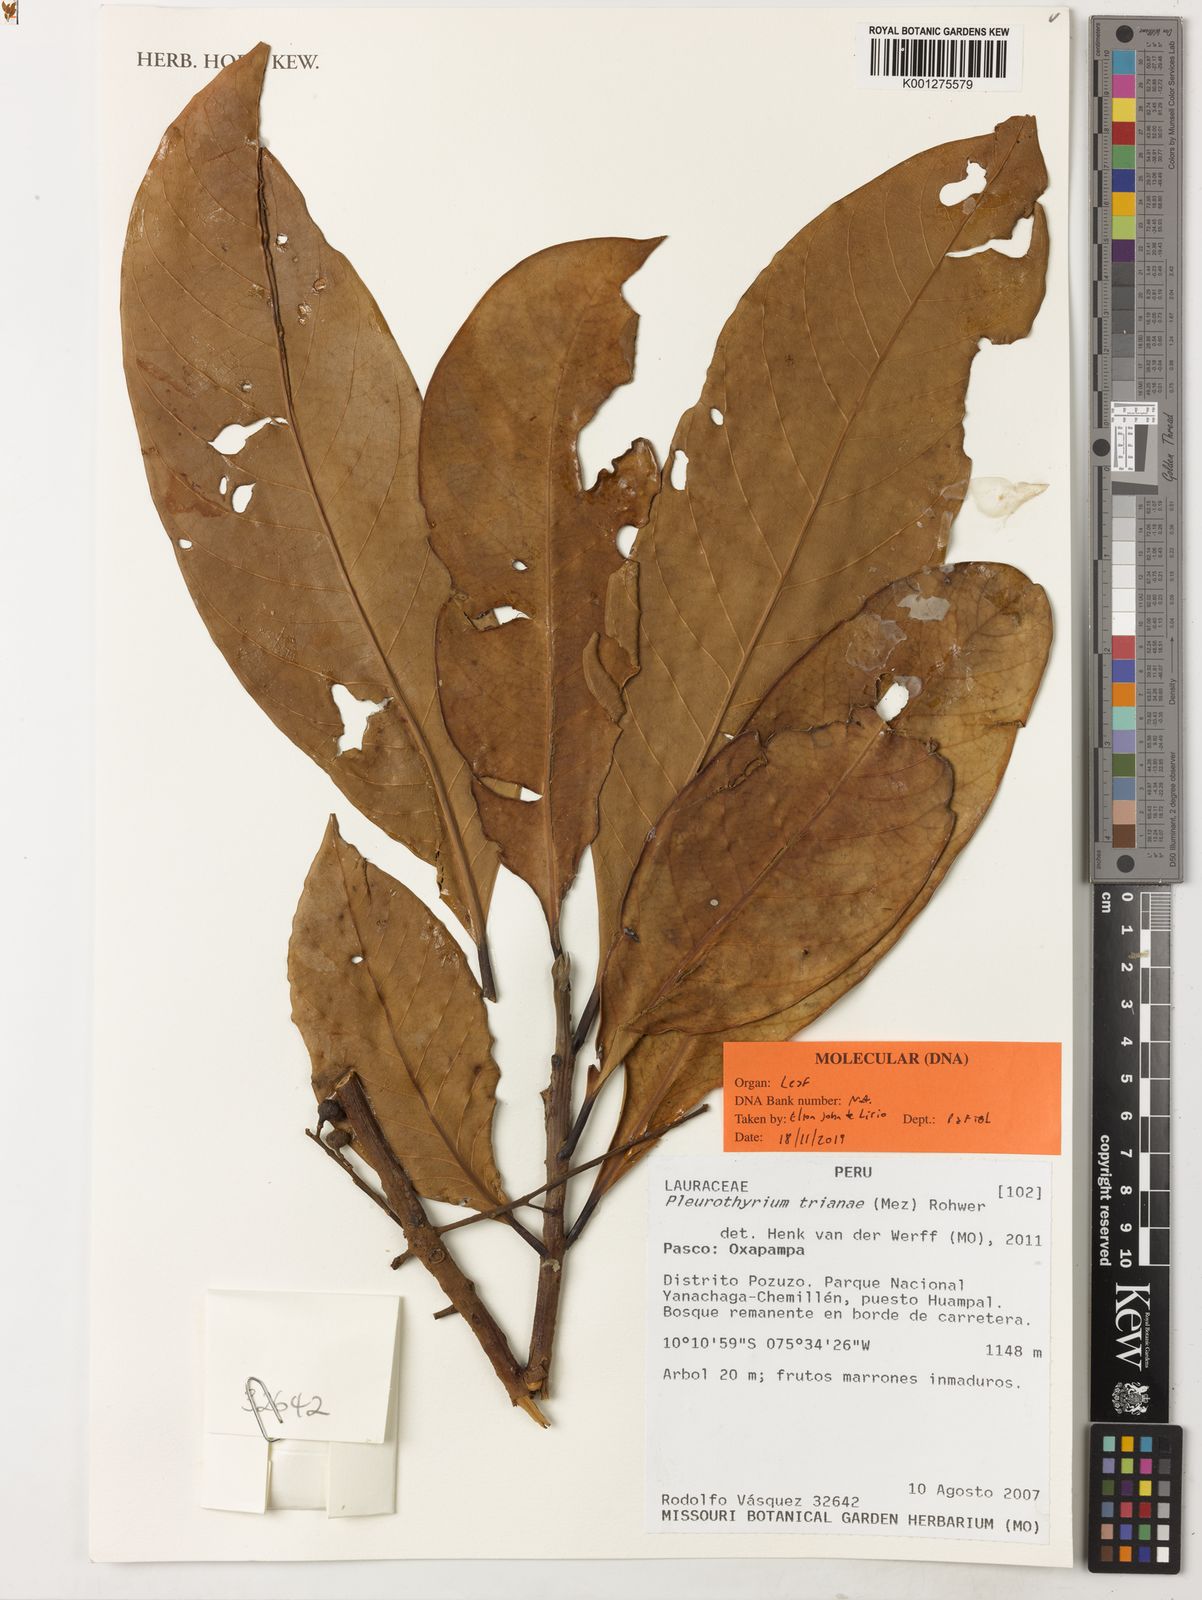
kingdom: Plantae
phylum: Tracheophyta
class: Magnoliopsida
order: Laurales
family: Lauraceae
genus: Pleurothyrium
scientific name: Pleurothyrium trianae
